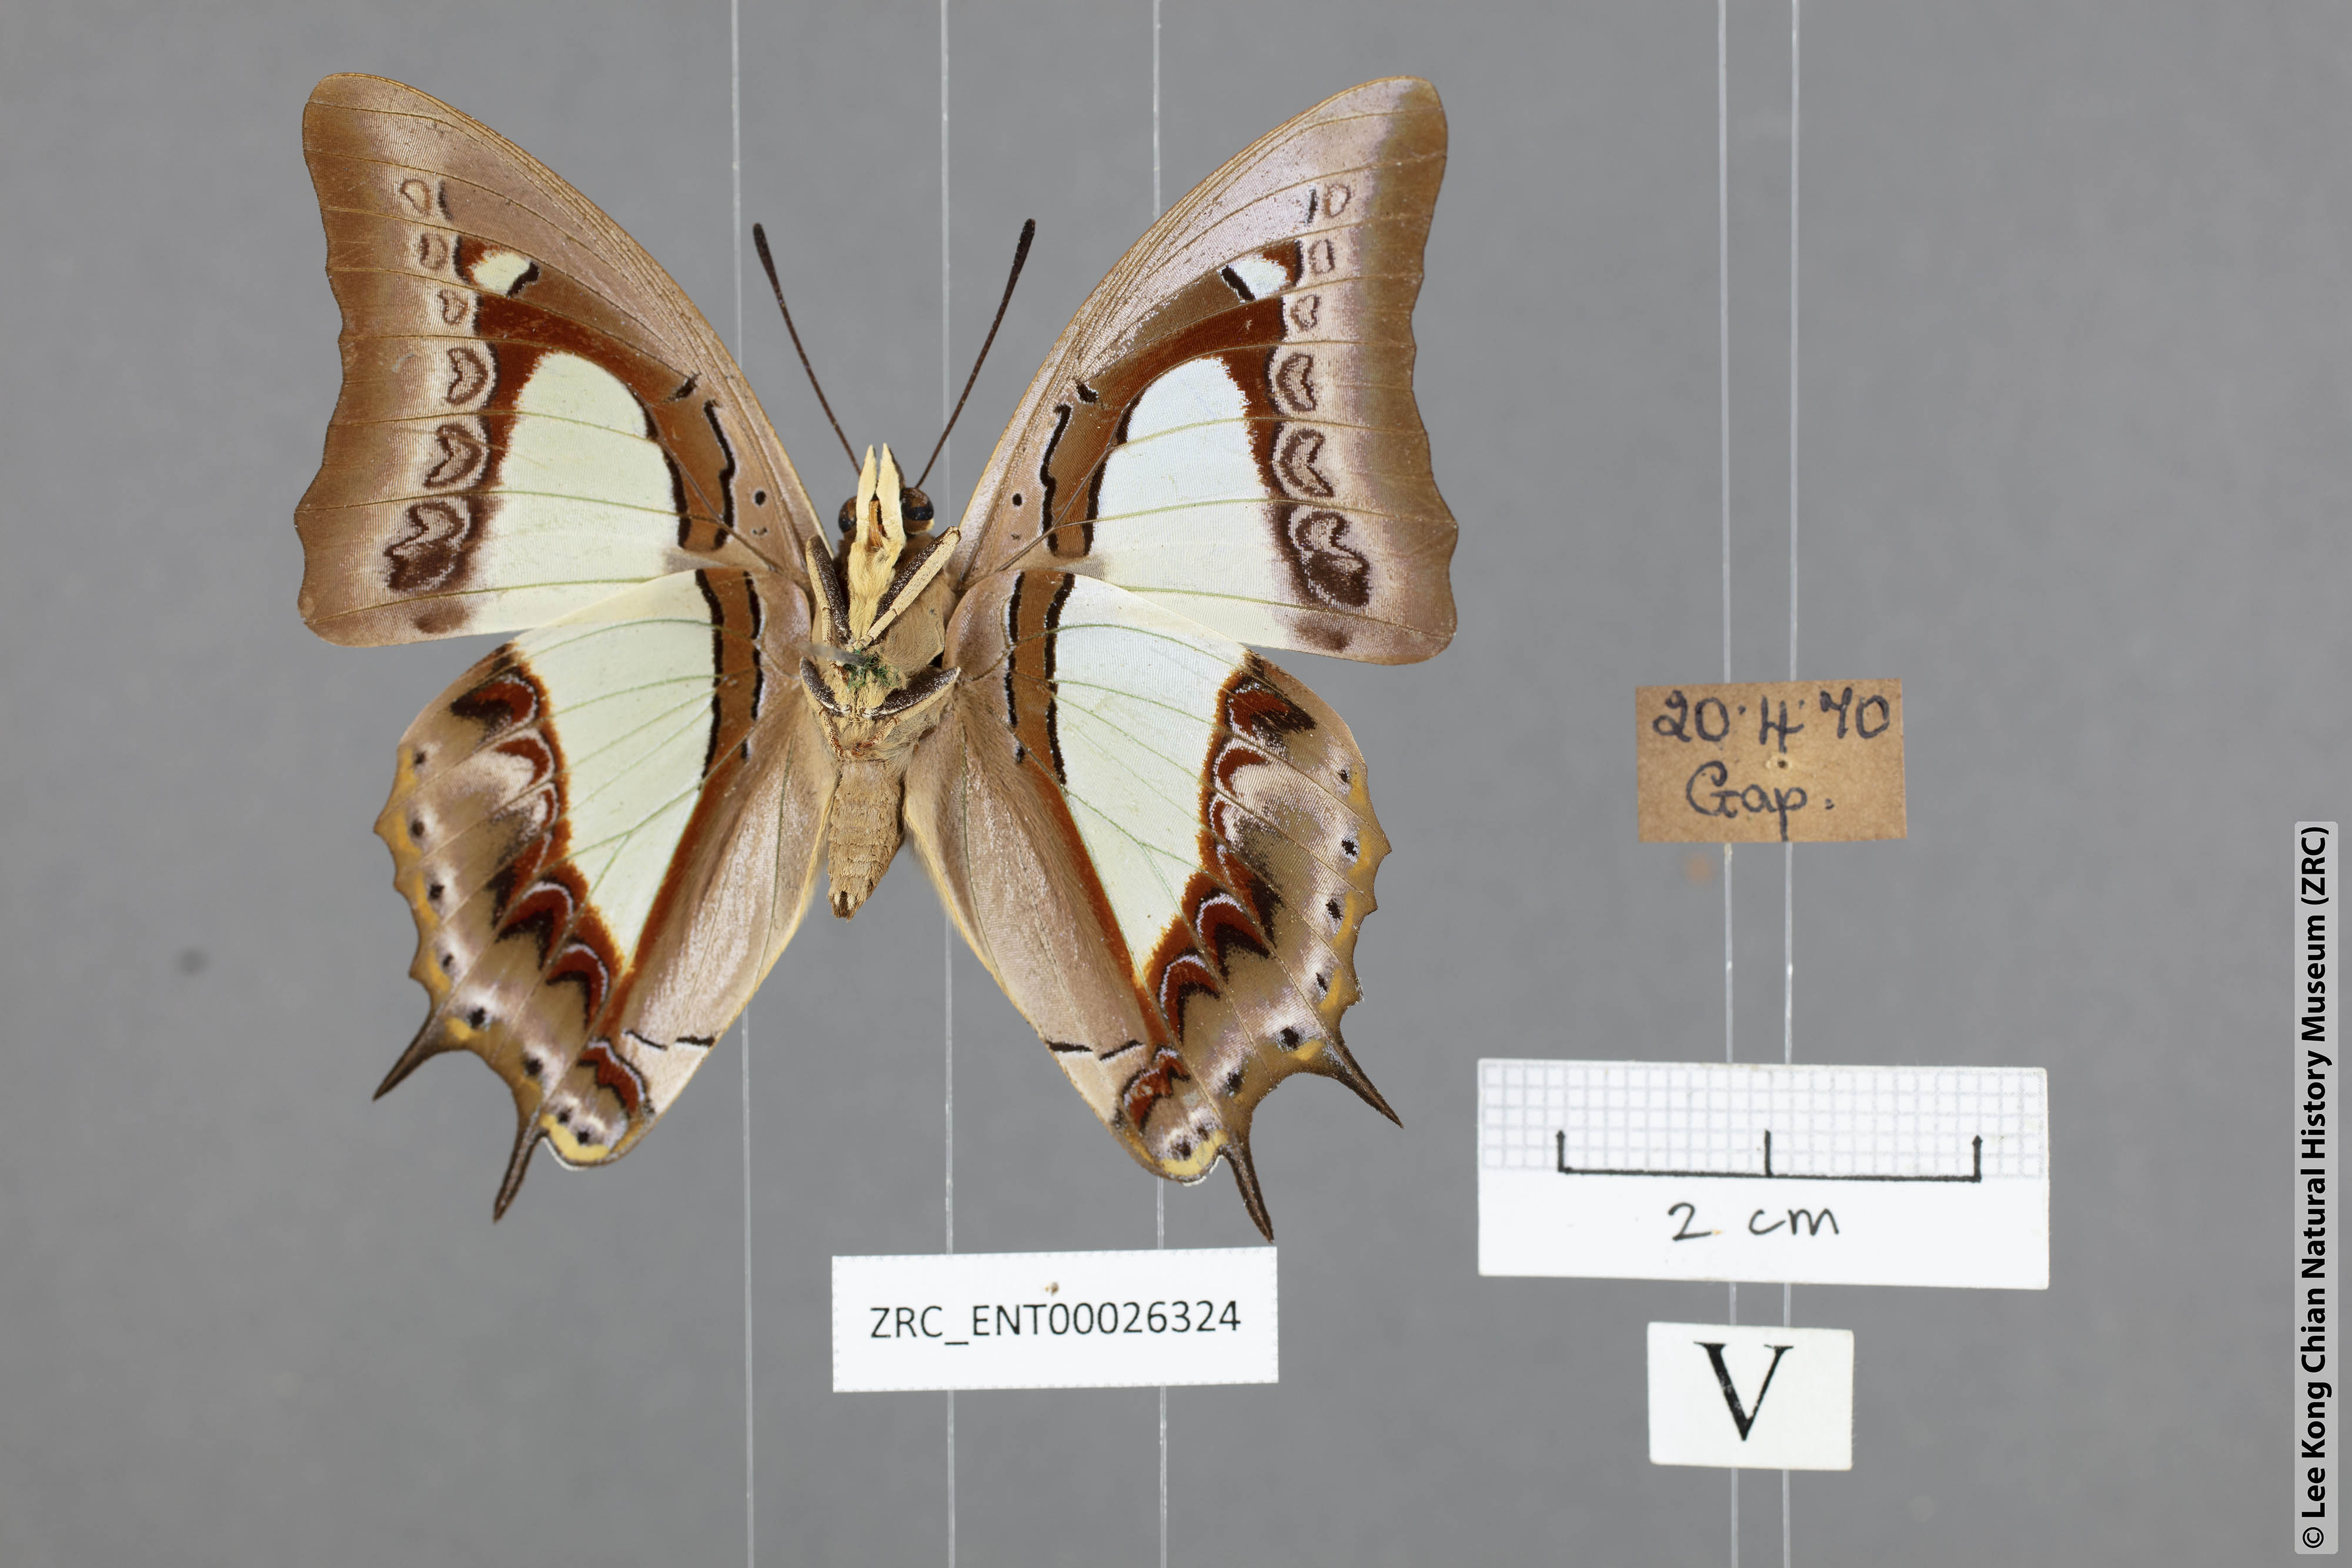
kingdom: Animalia
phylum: Arthropoda
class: Insecta
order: Lepidoptera
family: Nymphalidae
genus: Polyura
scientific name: Polyura athamas
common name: Common nawab
